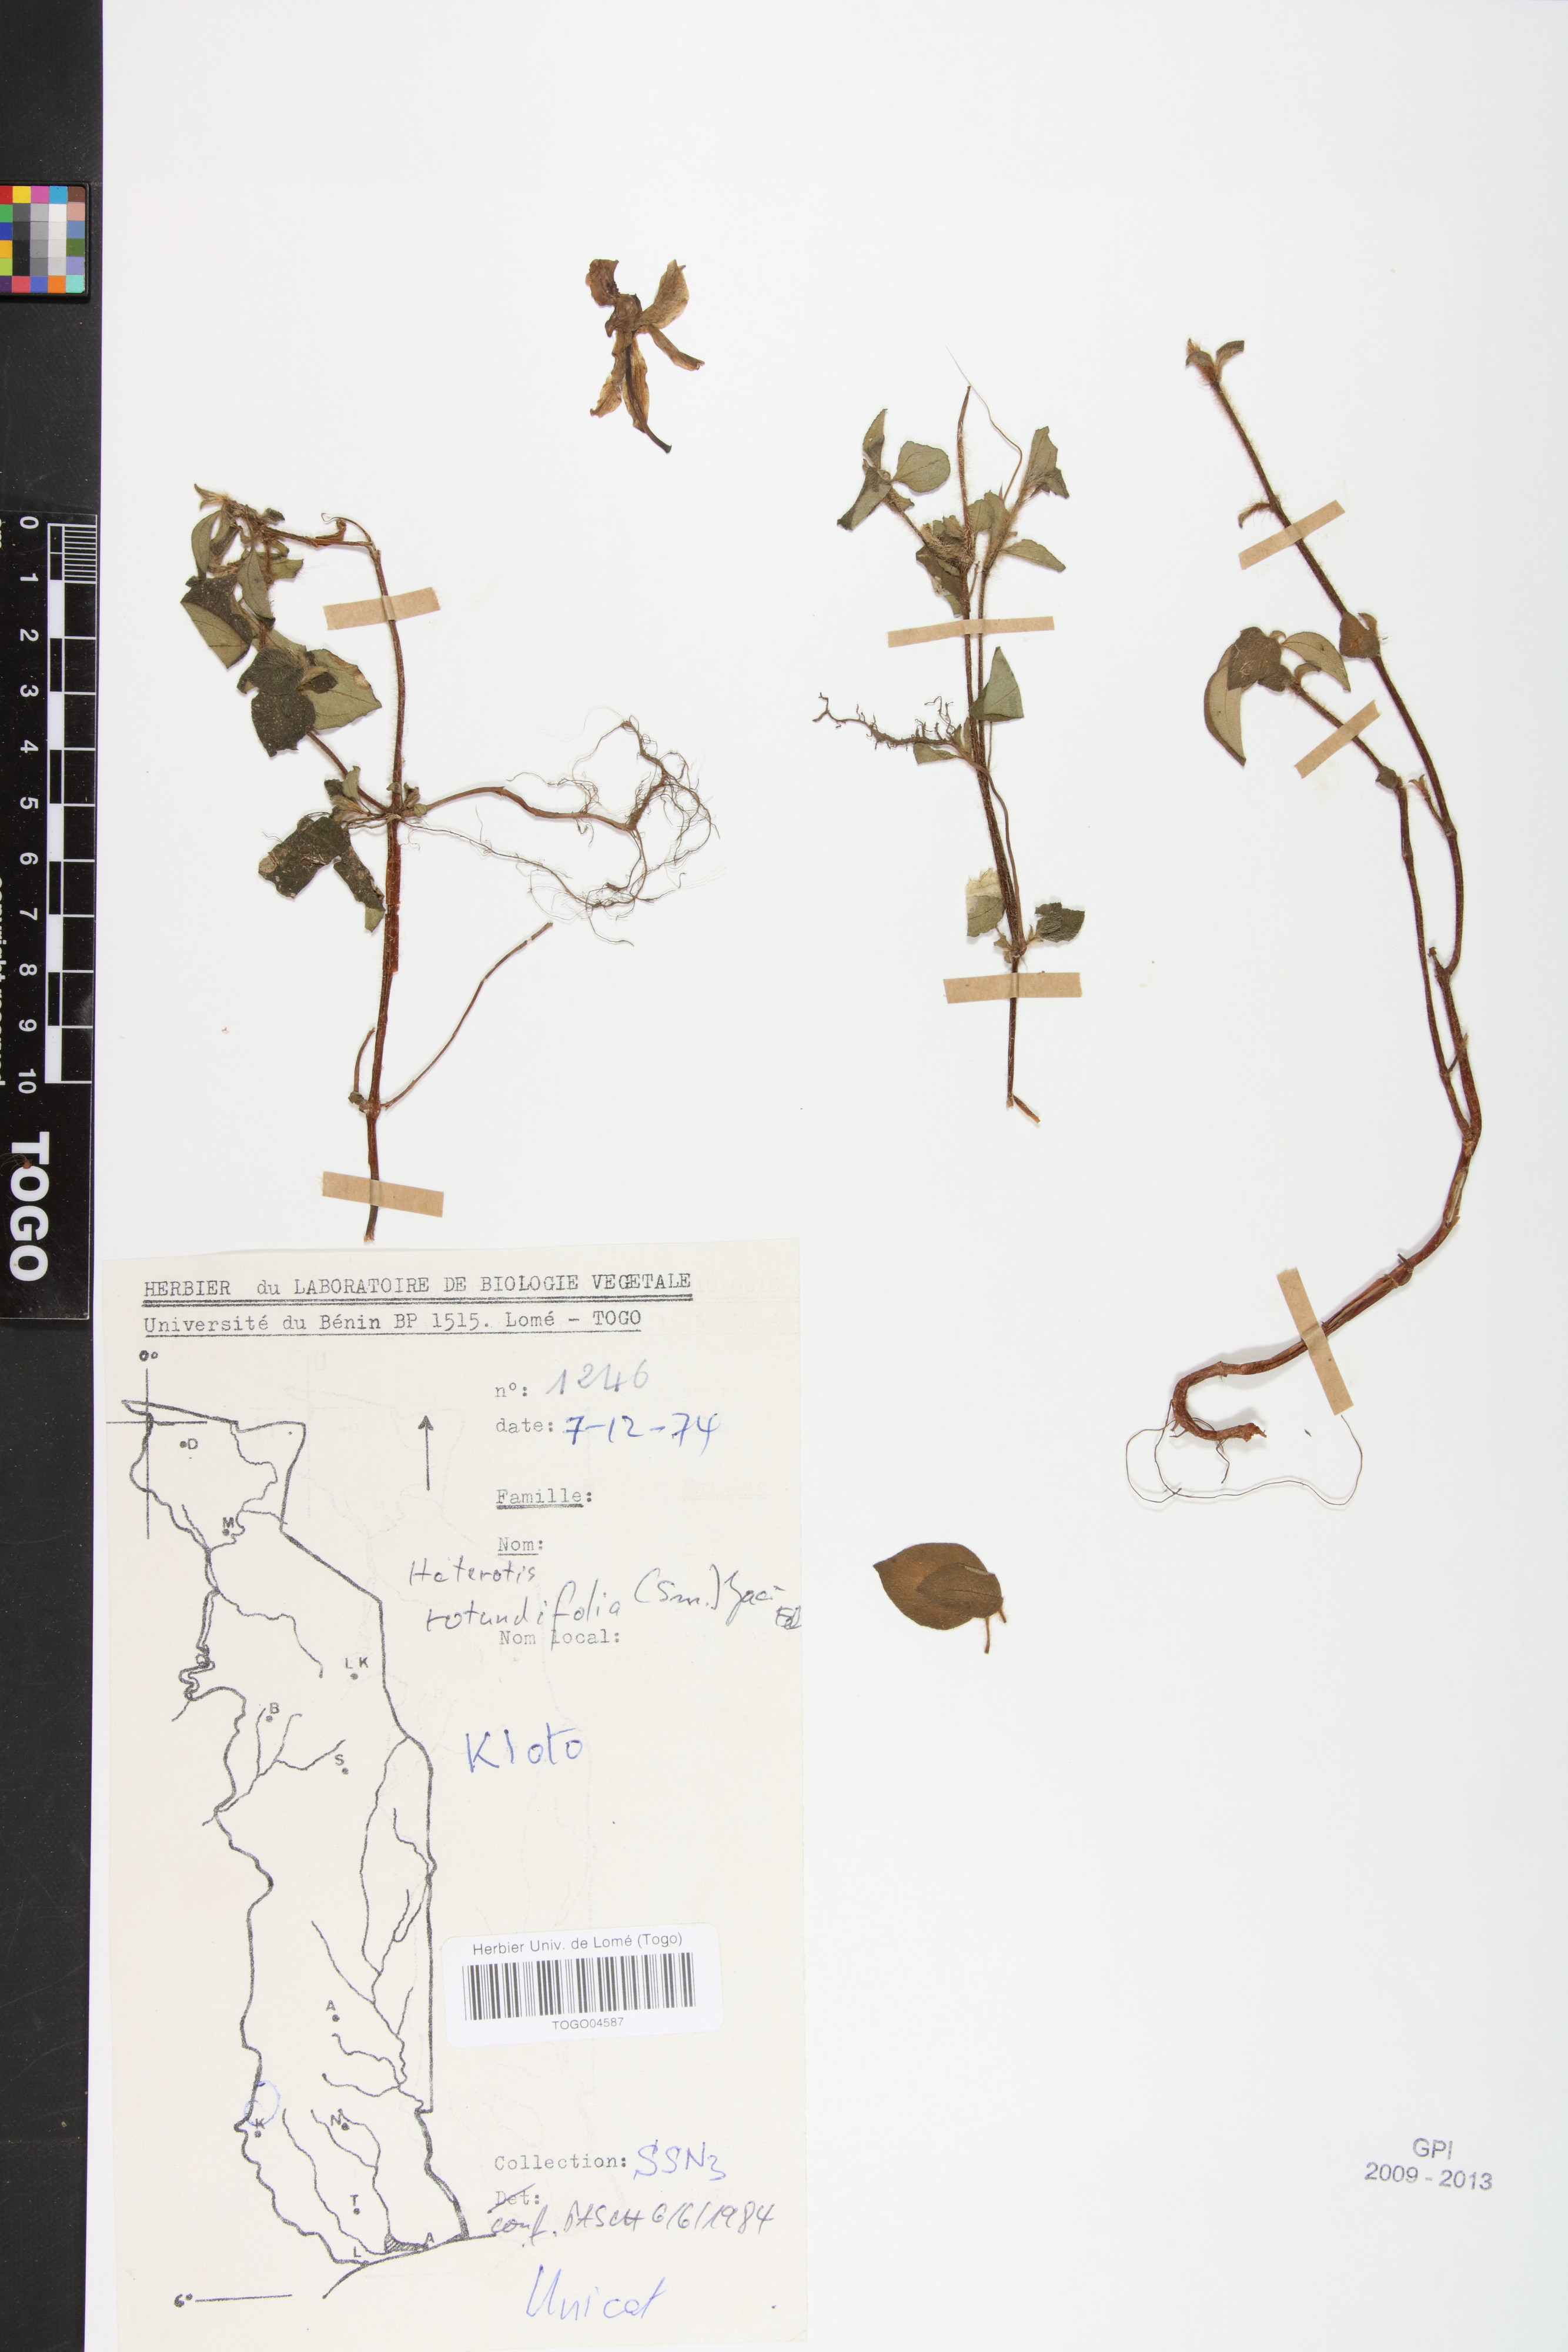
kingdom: Plantae
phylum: Tracheophyta
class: Magnoliopsida
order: Myrtales
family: Melastomataceae
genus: Heterotis
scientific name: Heterotis rotundifolia
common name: Pinklady
